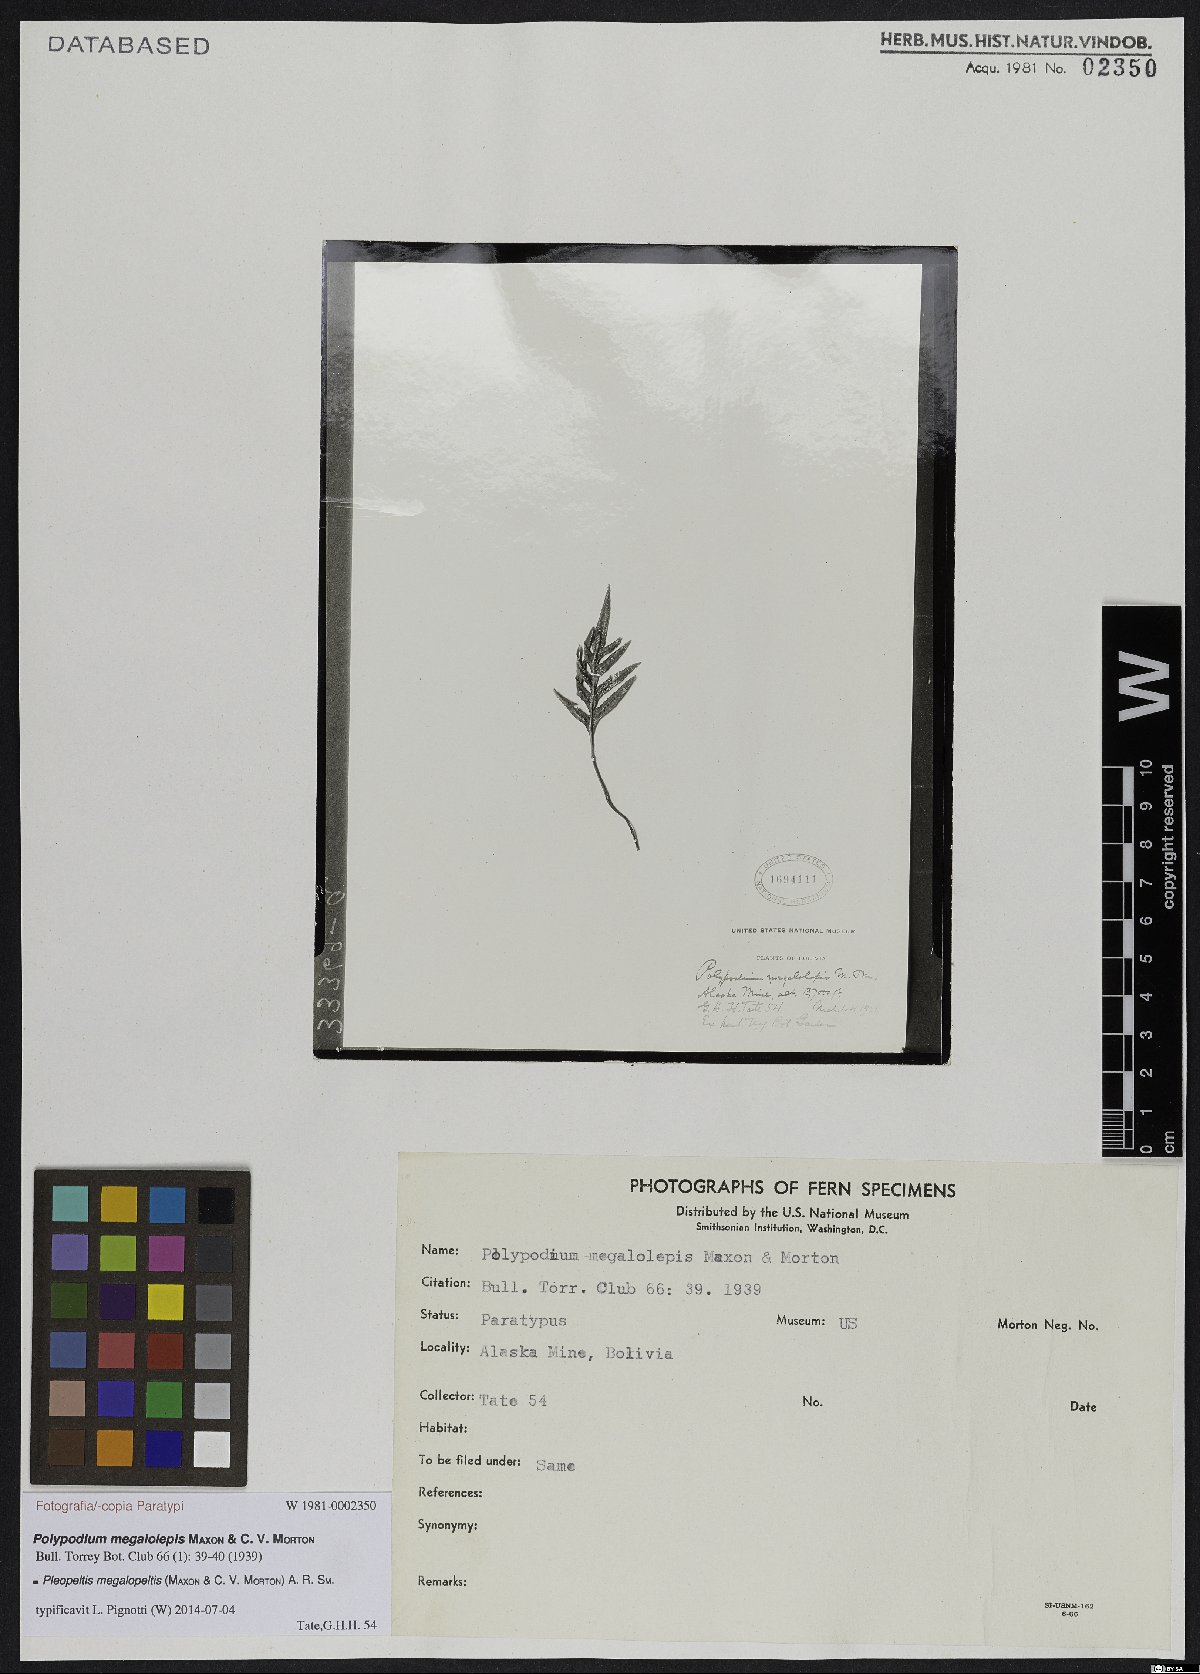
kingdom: Plantae
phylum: Tracheophyta
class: Polypodiopsida
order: Polypodiales
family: Polypodiaceae
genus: Pleopeltis
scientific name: Pleopeltis
